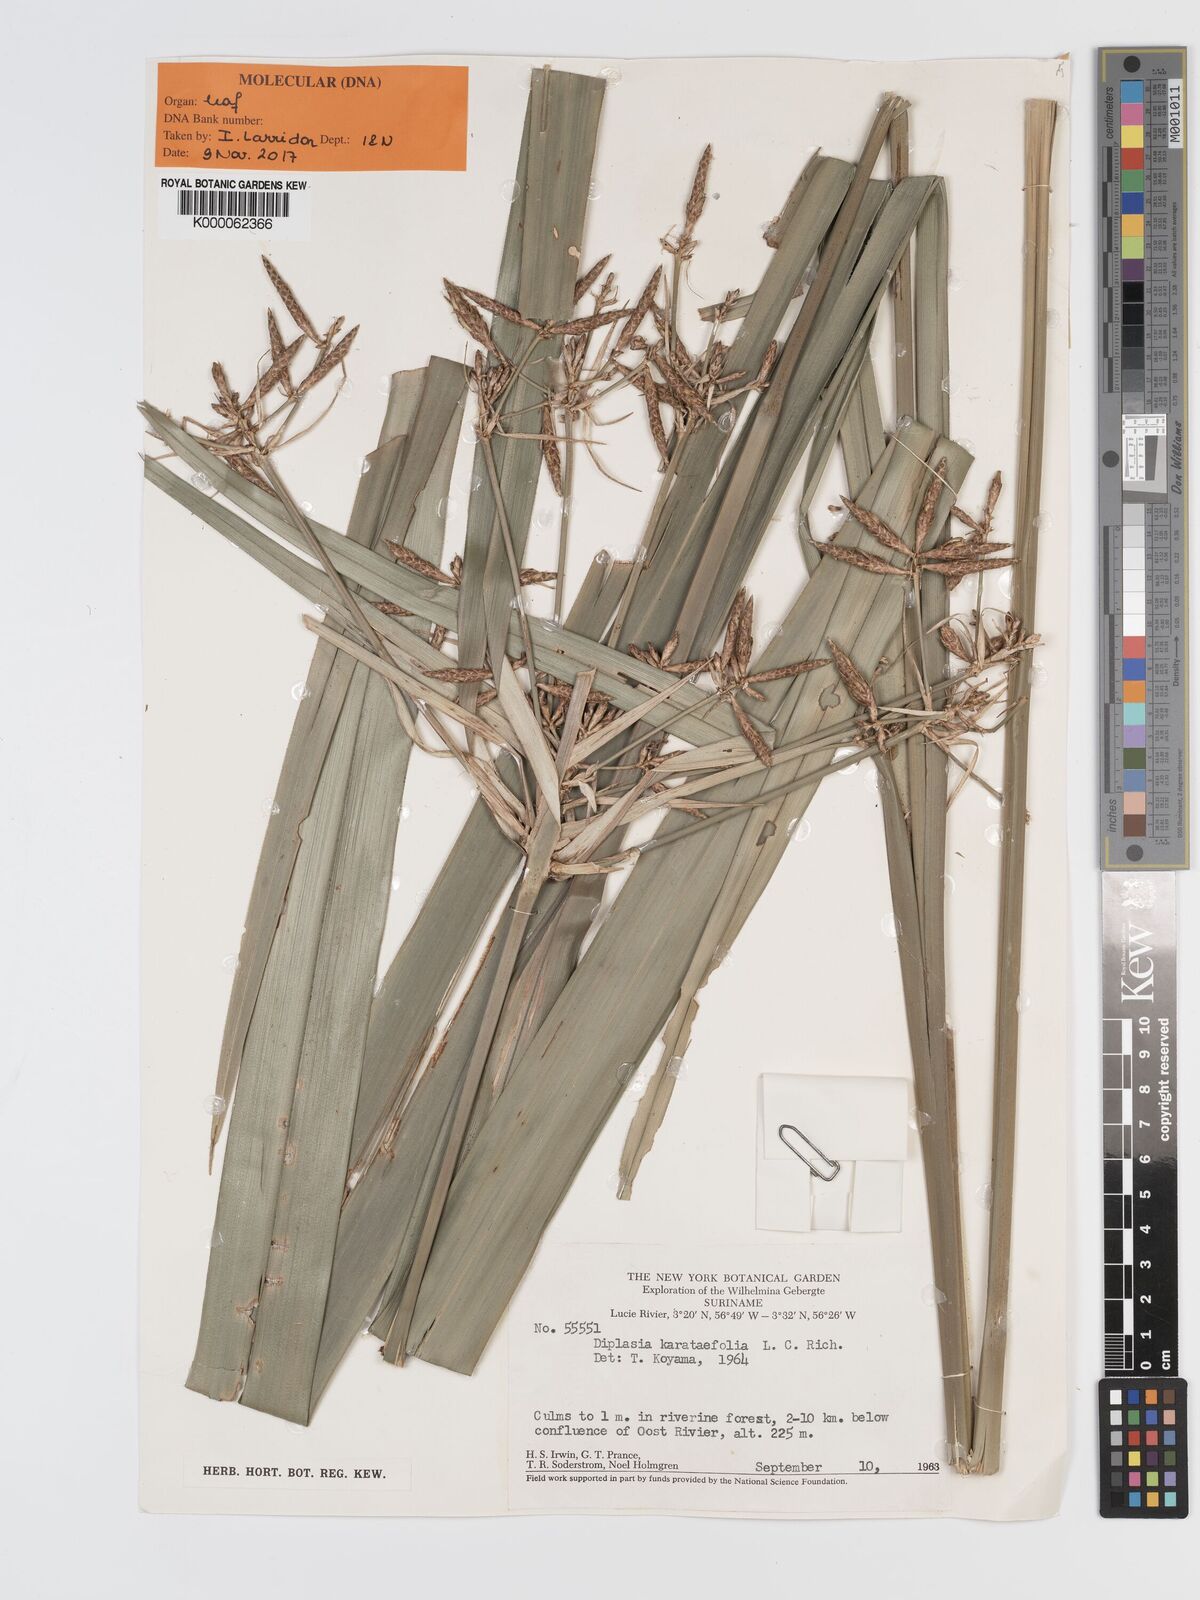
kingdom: Plantae
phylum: Tracheophyta
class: Liliopsida
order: Poales
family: Cyperaceae
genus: Diplasia
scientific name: Diplasia karatifolia
